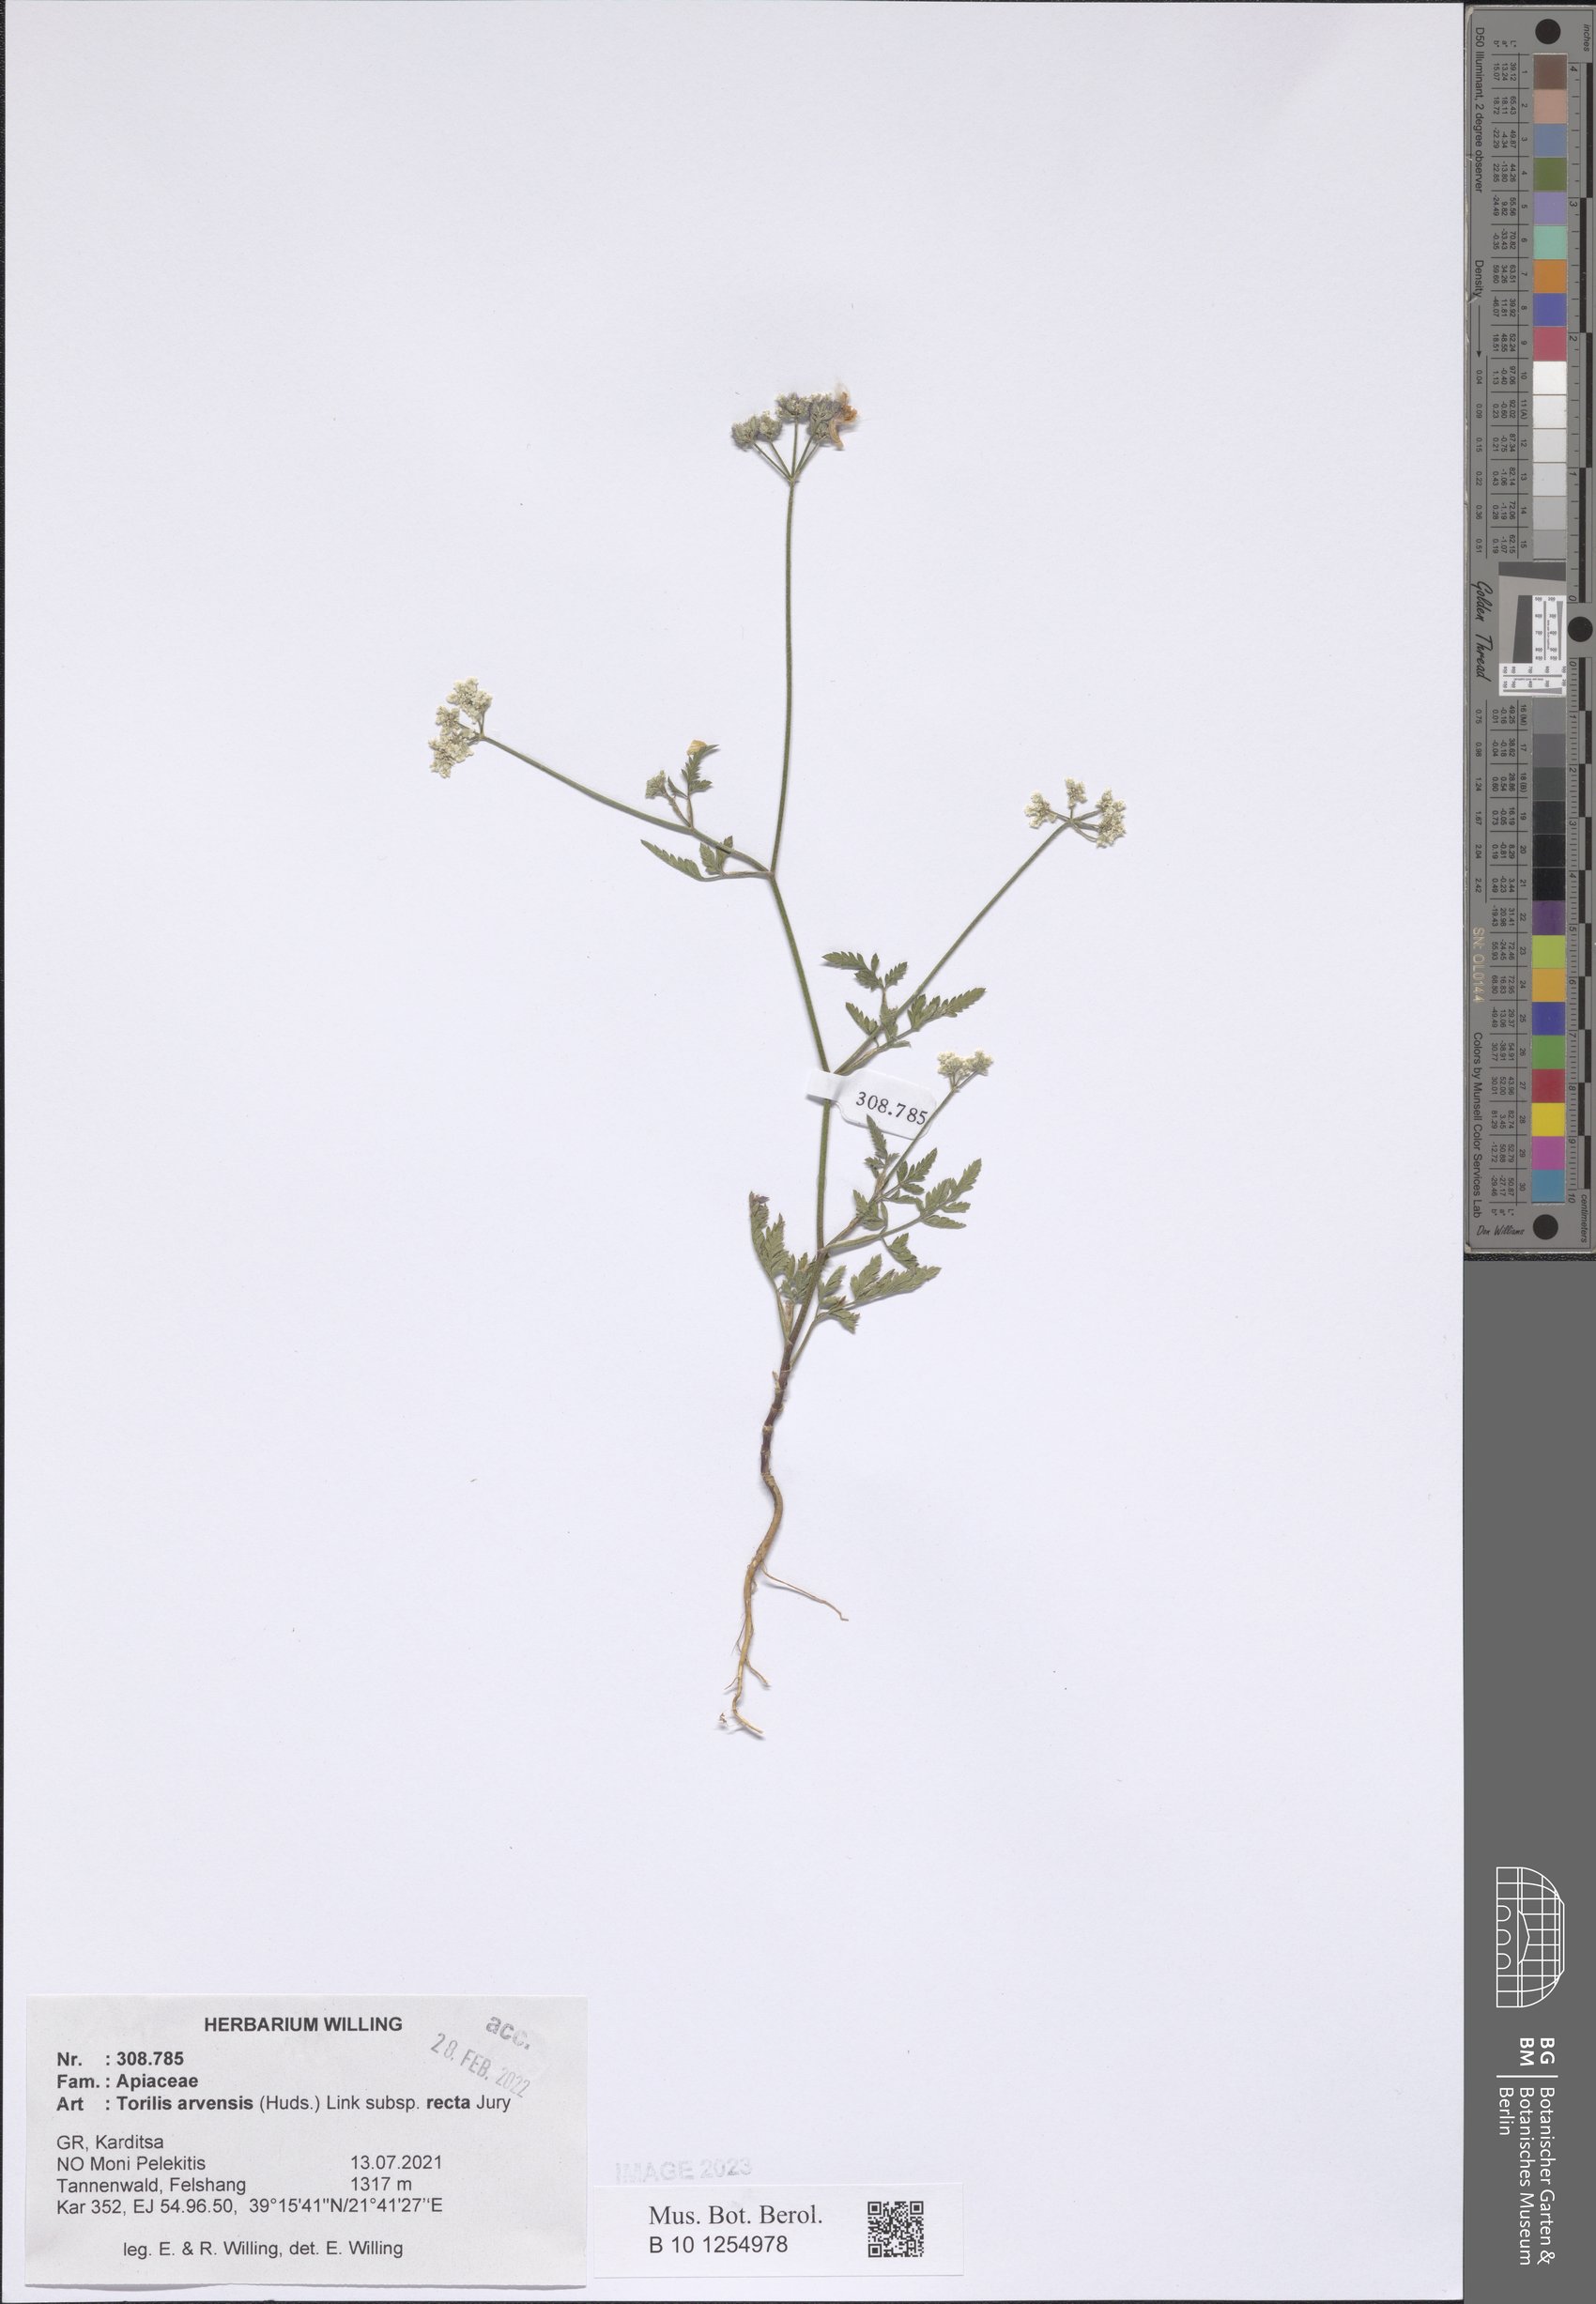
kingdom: Plantae
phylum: Tracheophyta
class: Magnoliopsida
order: Apiales
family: Apiaceae
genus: Torilis
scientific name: Torilis arvensis
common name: Spreading hedge-parsley
